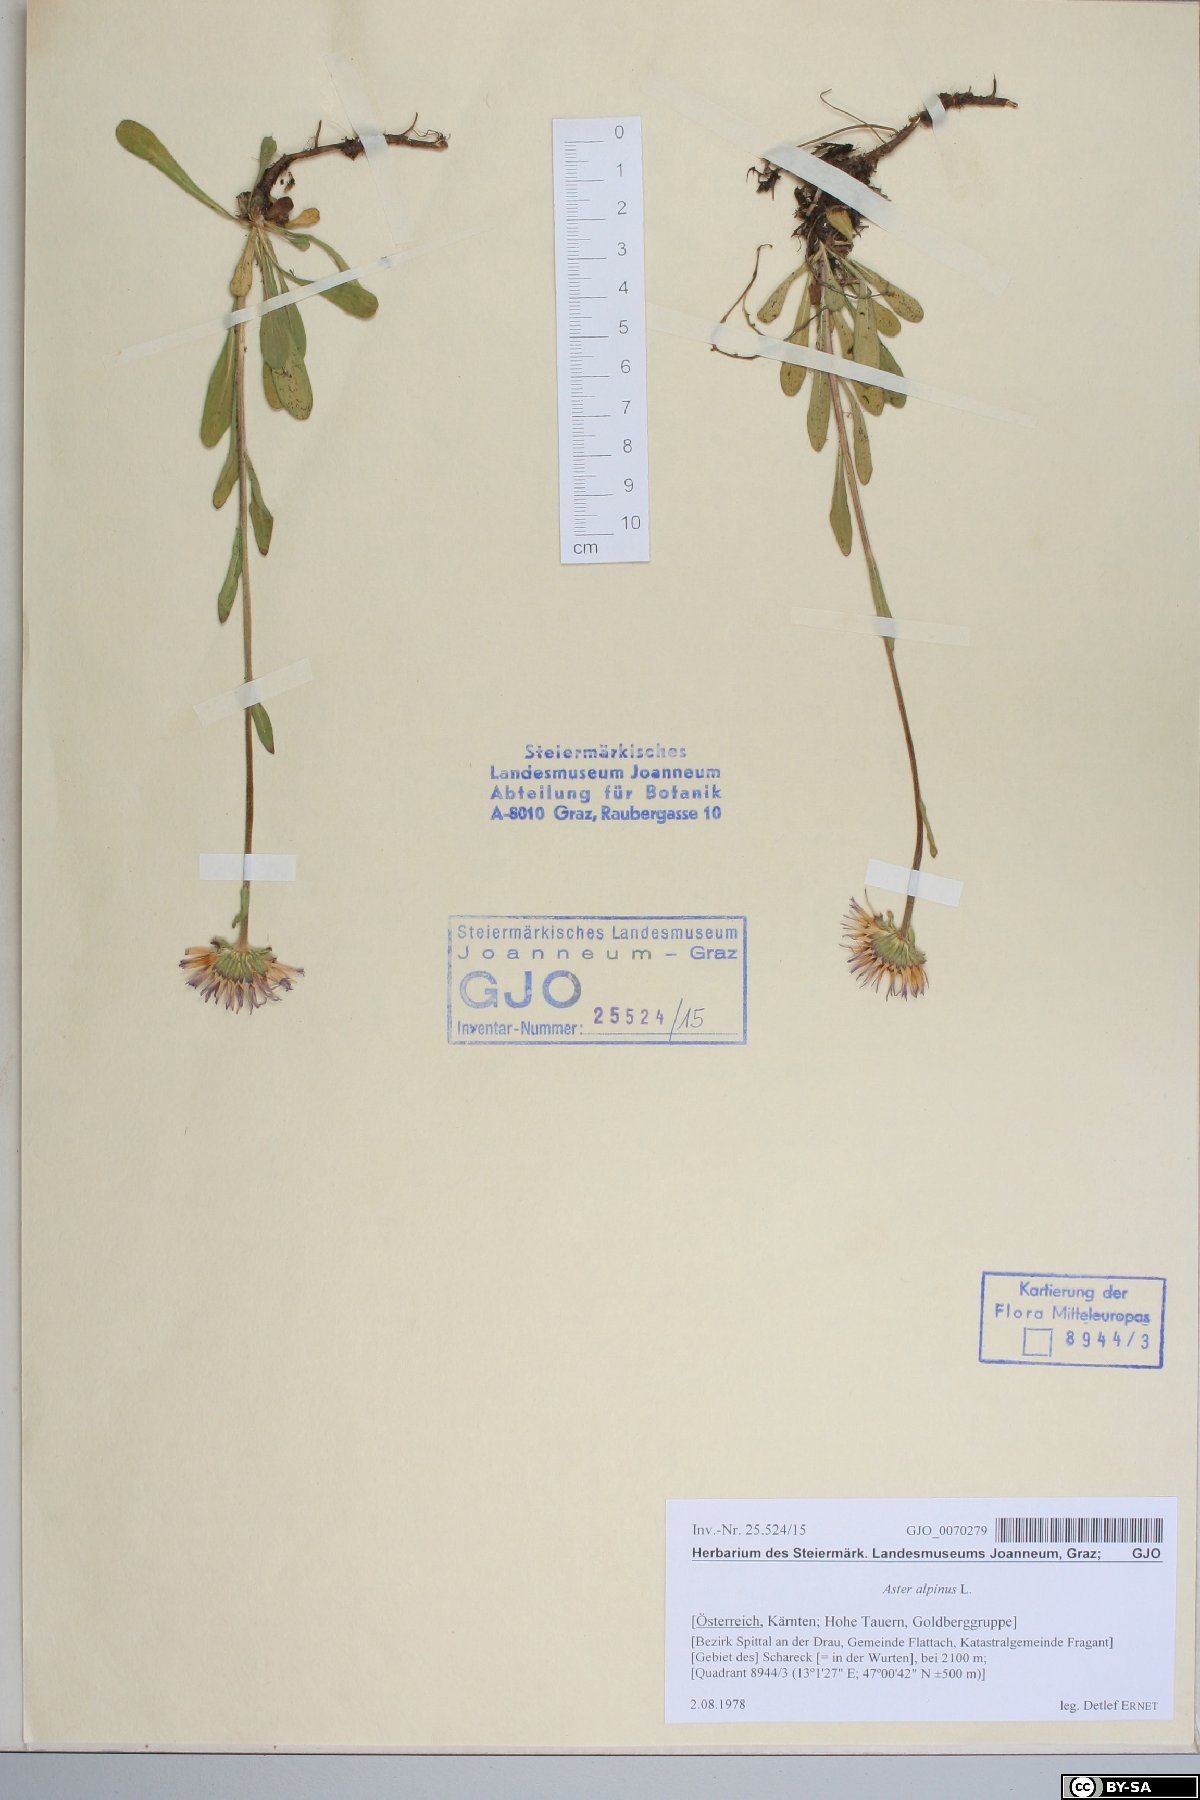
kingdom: Plantae
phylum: Tracheophyta
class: Magnoliopsida
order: Asterales
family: Asteraceae
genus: Aster
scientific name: Aster alpinus
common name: Alpine aster
